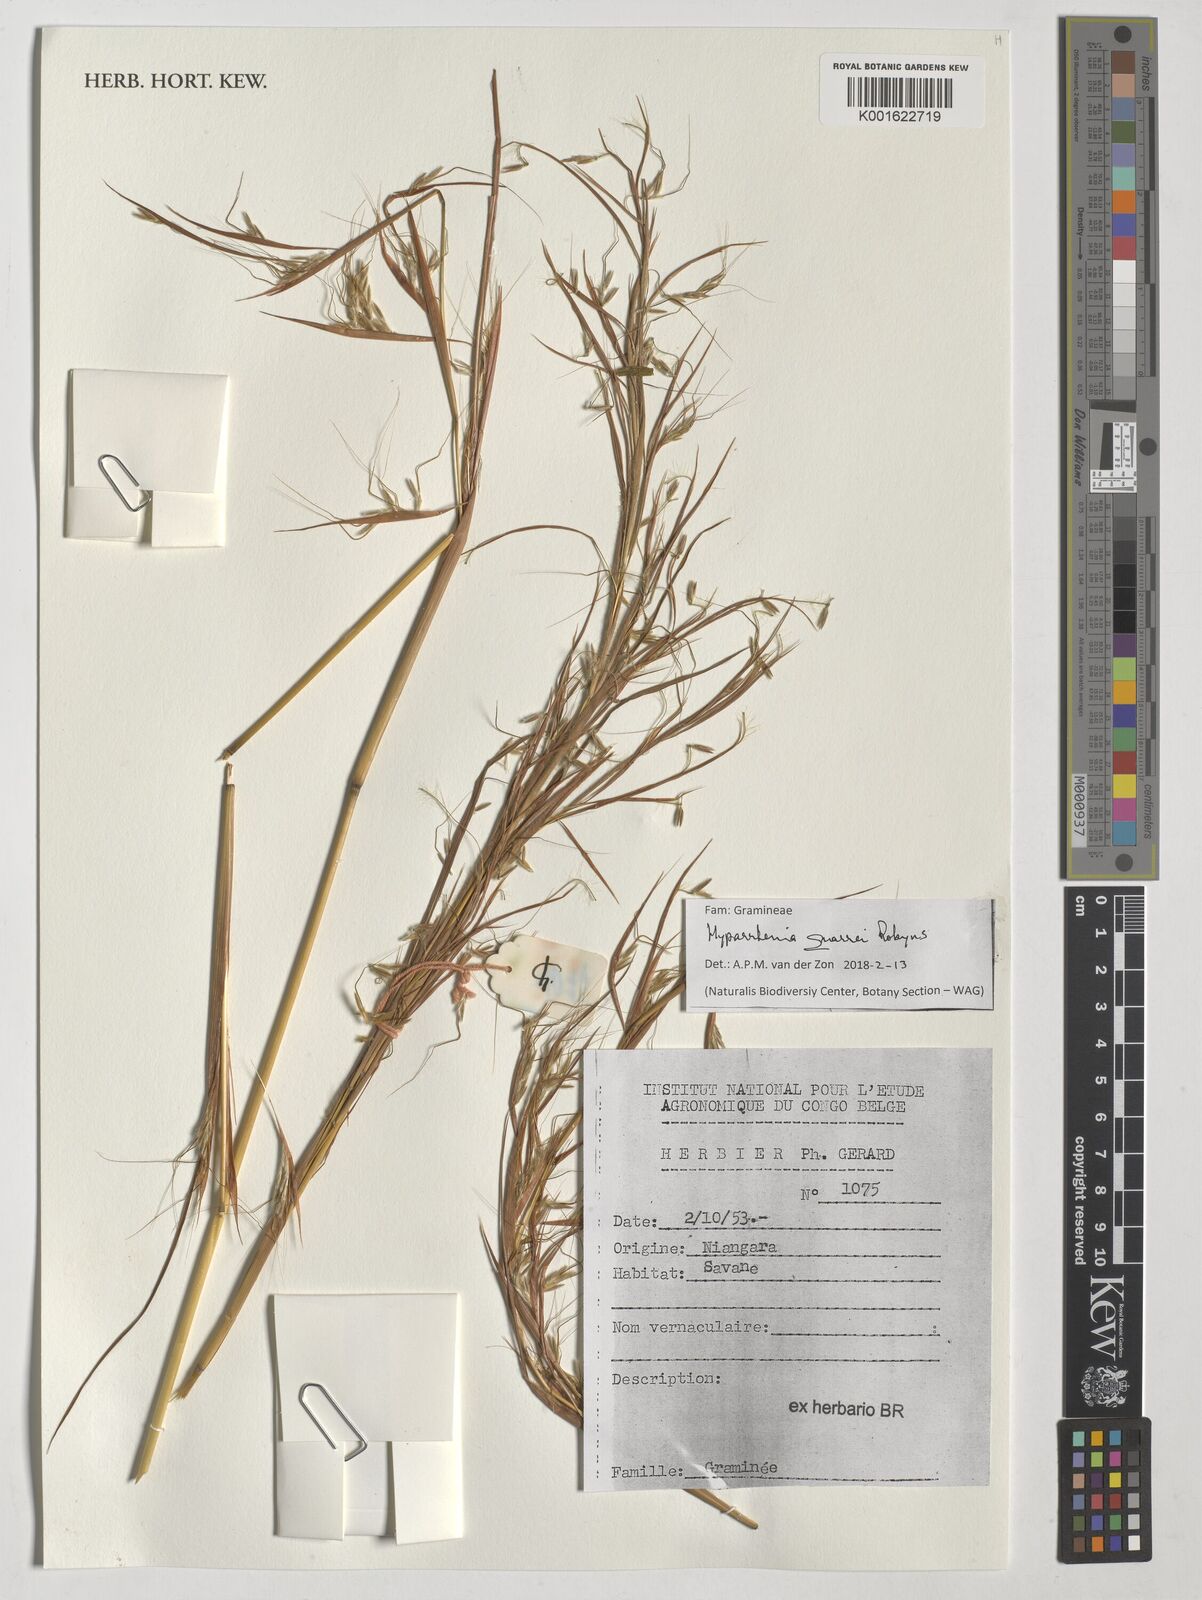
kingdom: Plantae
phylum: Tracheophyta
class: Liliopsida
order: Poales
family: Poaceae
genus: Hyparrhenia
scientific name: Hyparrhenia quarrei
